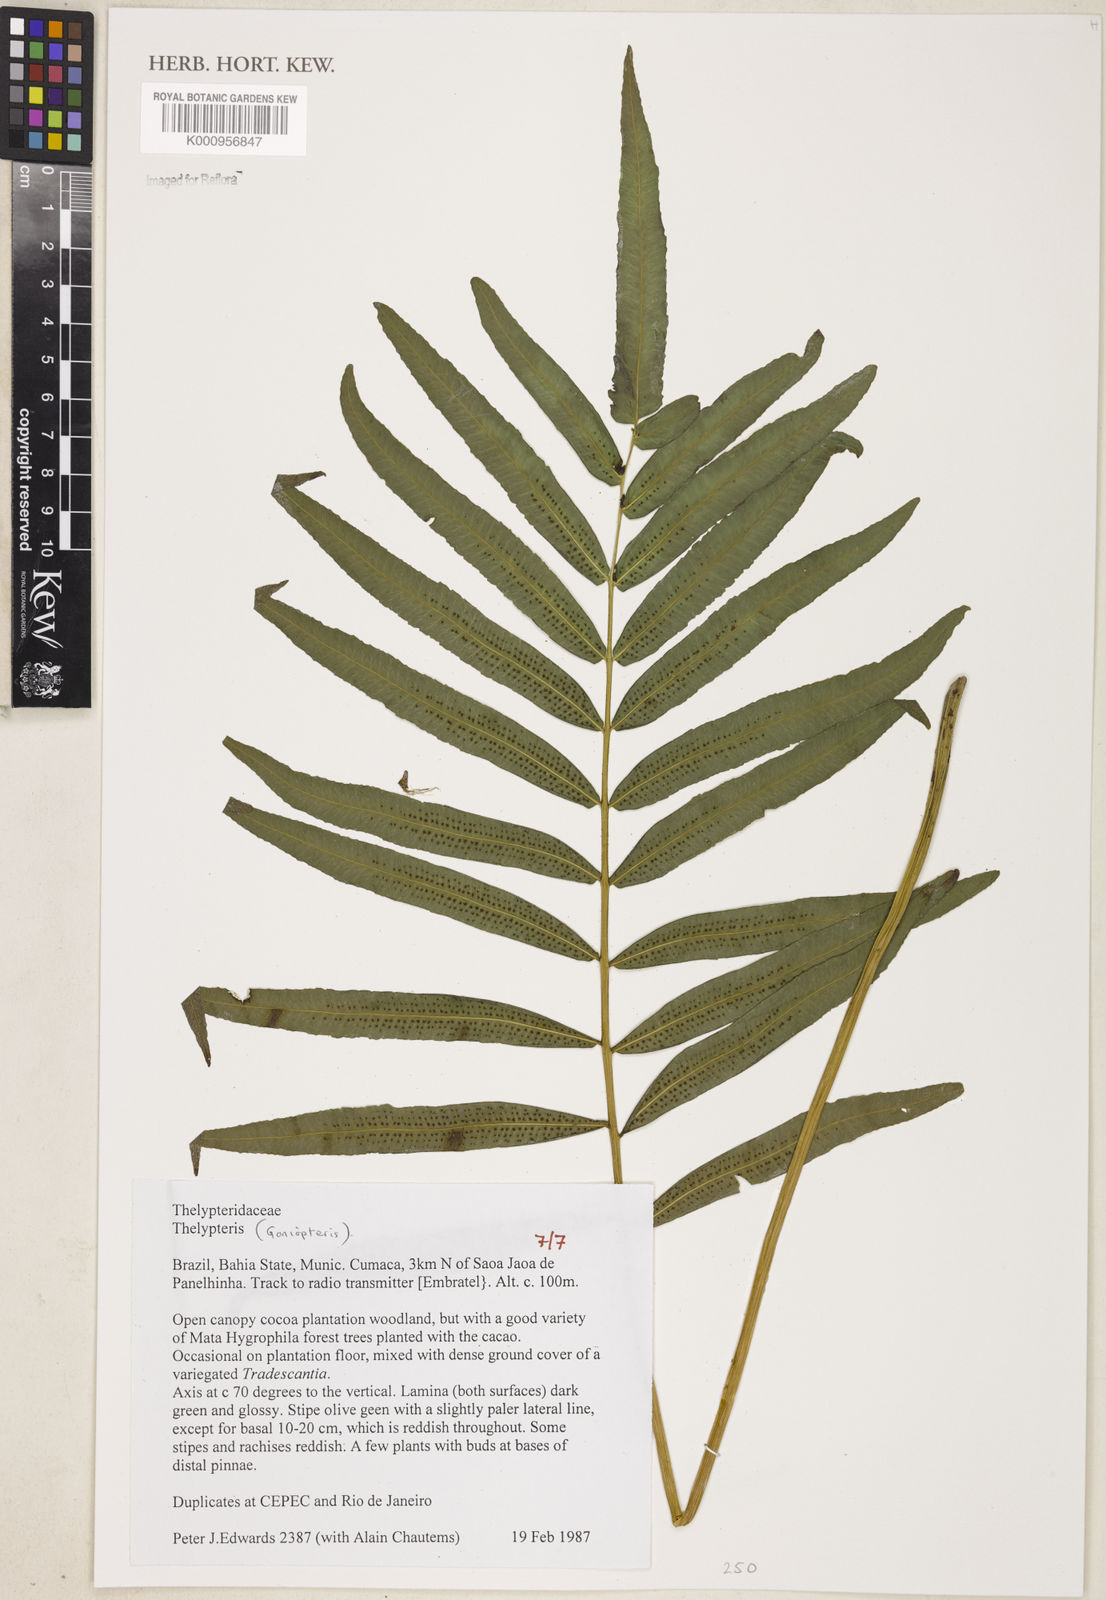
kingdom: Plantae
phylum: Tracheophyta
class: Polypodiopsida
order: Polypodiales
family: Thelypteridaceae
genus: Goniopteris
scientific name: Goniopteris
